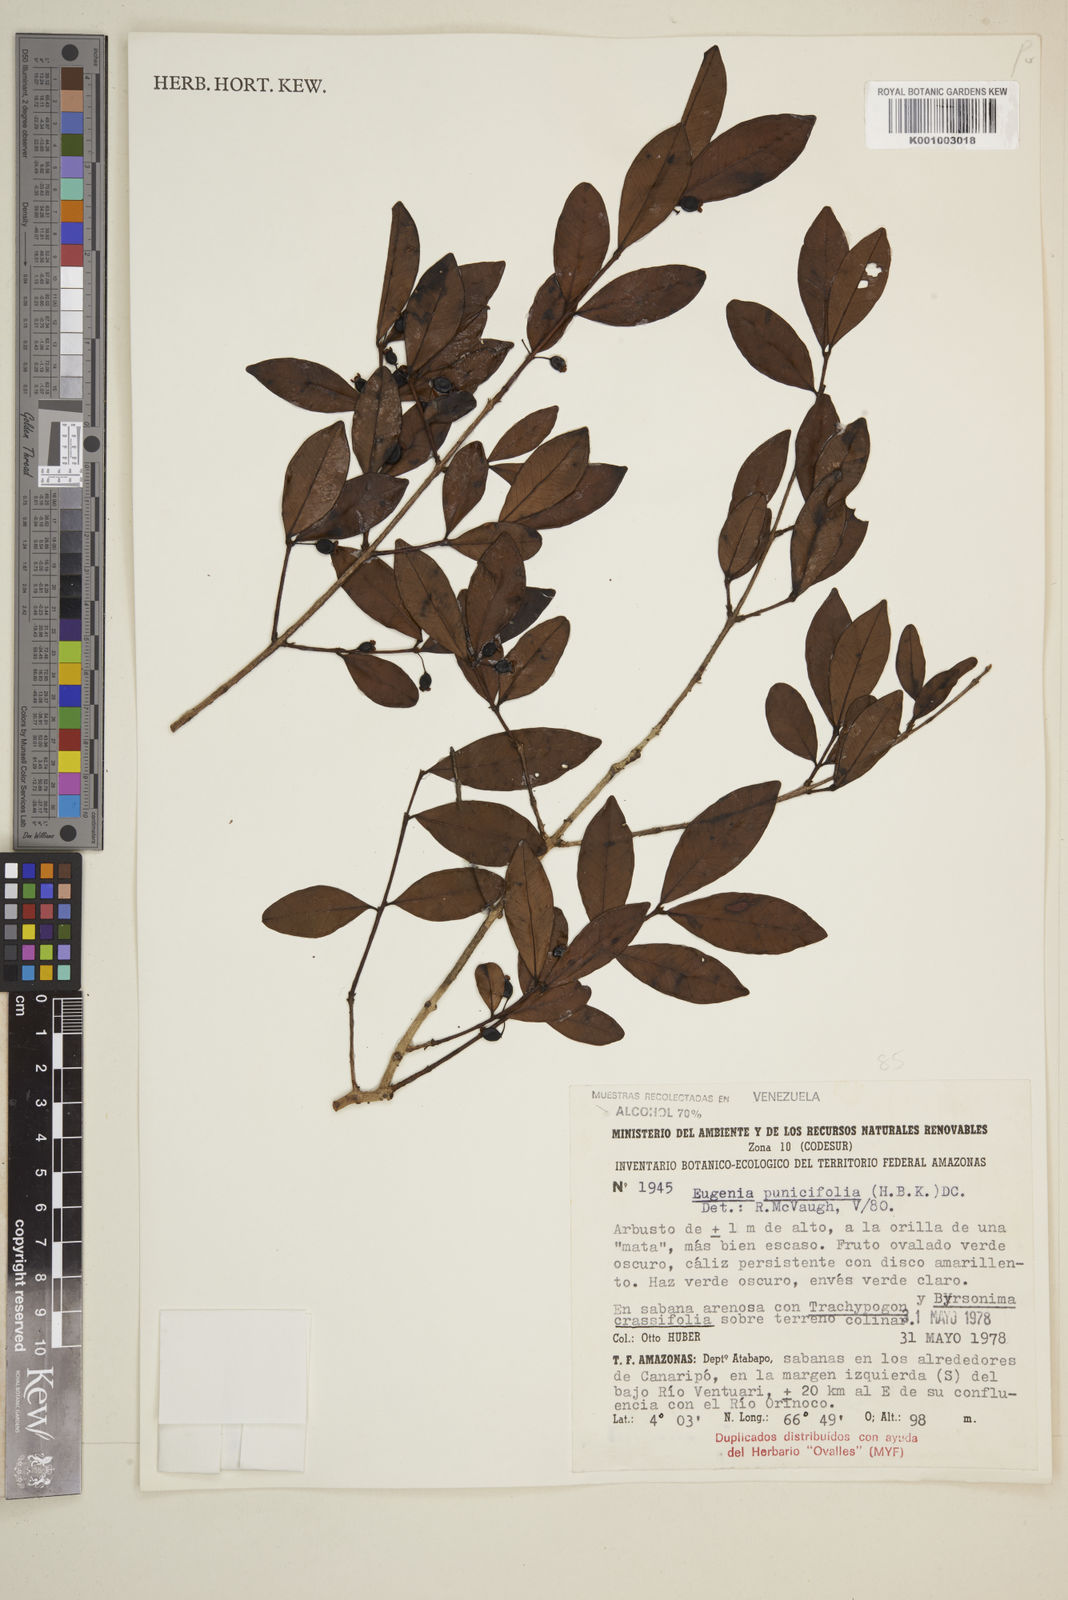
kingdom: Plantae
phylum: Tracheophyta
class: Magnoliopsida
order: Myrtales
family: Myrtaceae
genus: Eugenia
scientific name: Eugenia punicifolia
